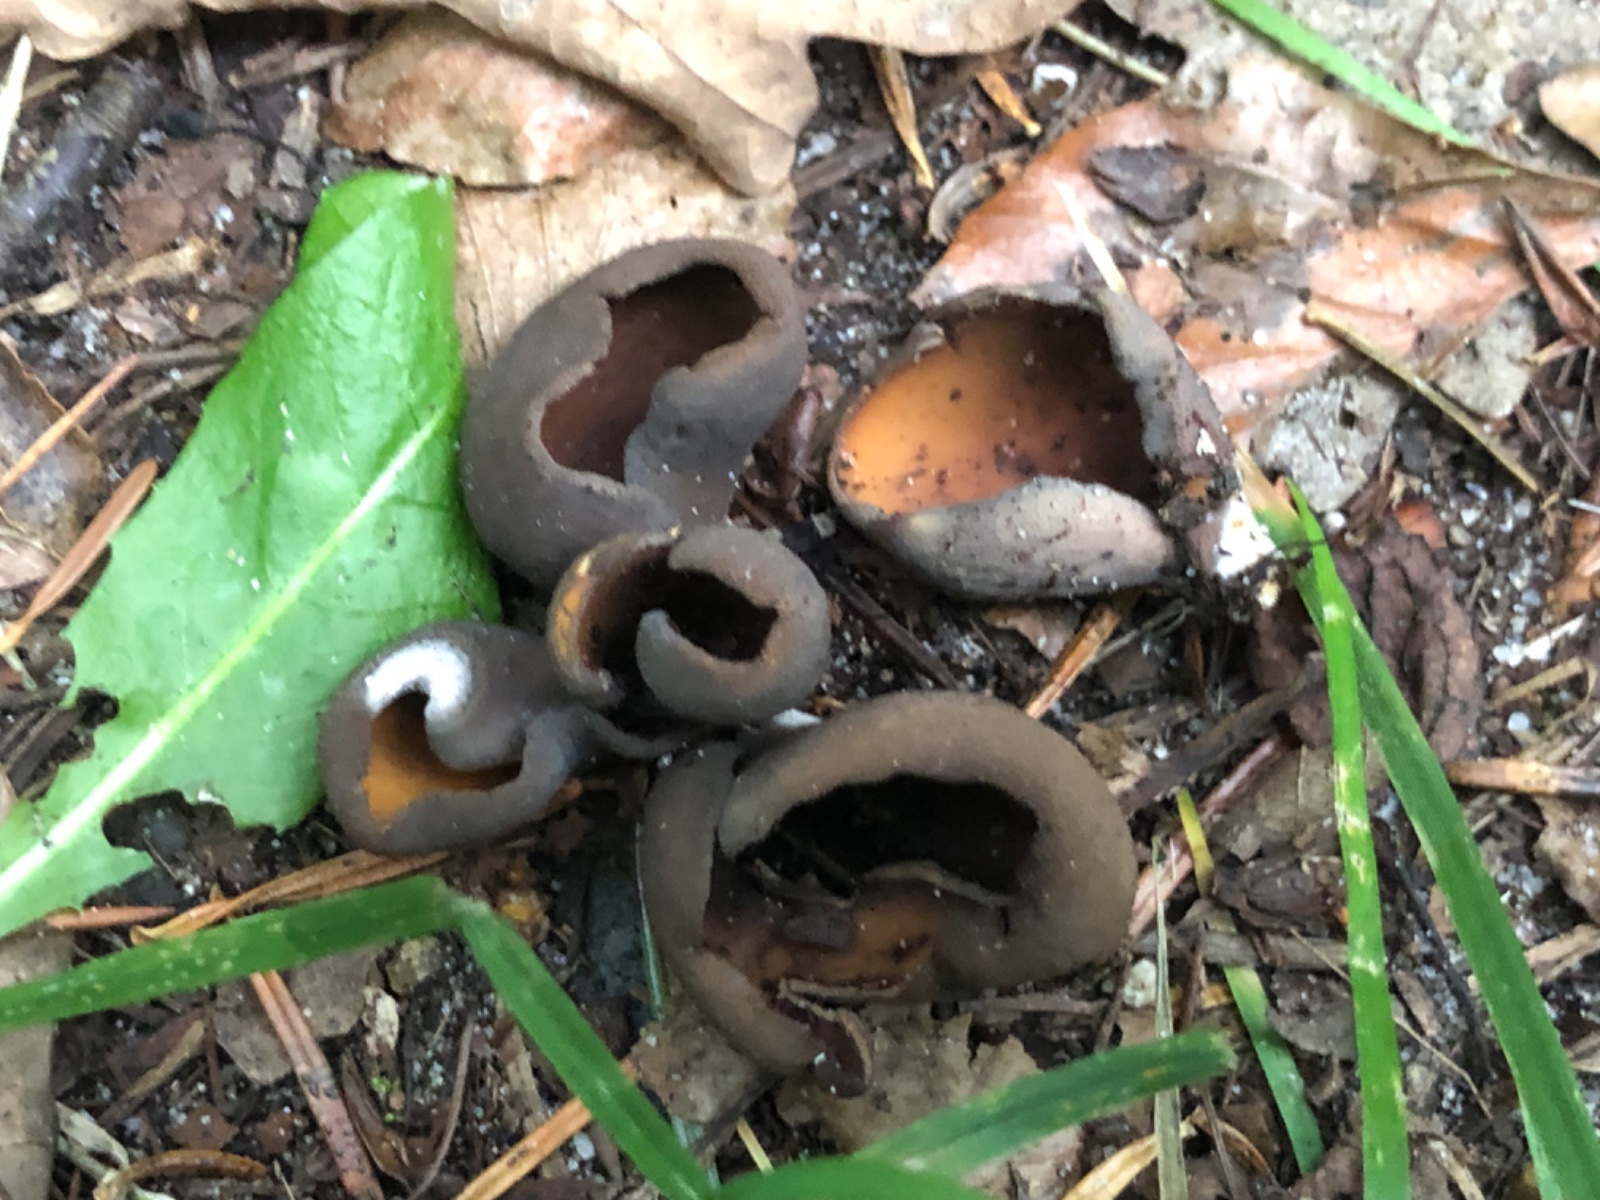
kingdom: Fungi
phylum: Ascomycota
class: Pezizomycetes
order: Pezizales
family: Otideaceae
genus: Otidea
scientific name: Otidea bufonia
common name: brun ørebæger
